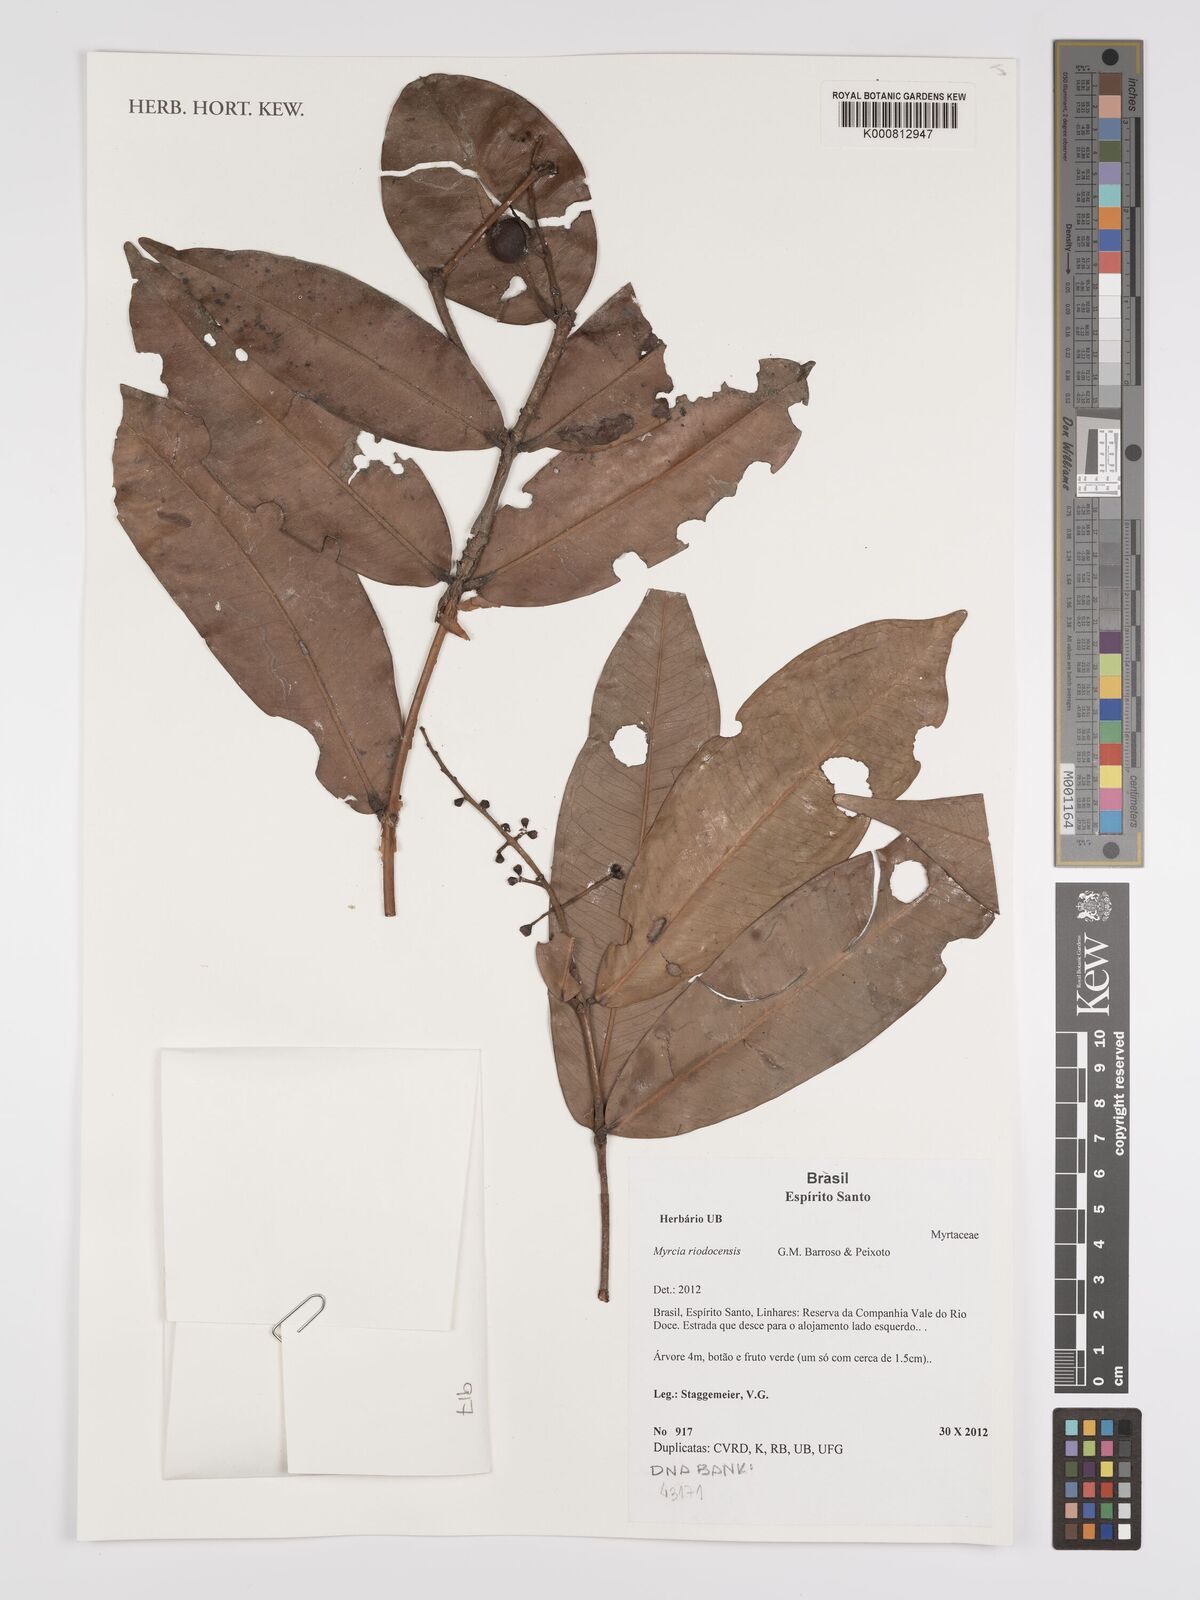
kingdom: Plantae
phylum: Tracheophyta
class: Magnoliopsida
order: Myrtales
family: Myrtaceae
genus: Myrcia
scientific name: Myrcia riodocensis
